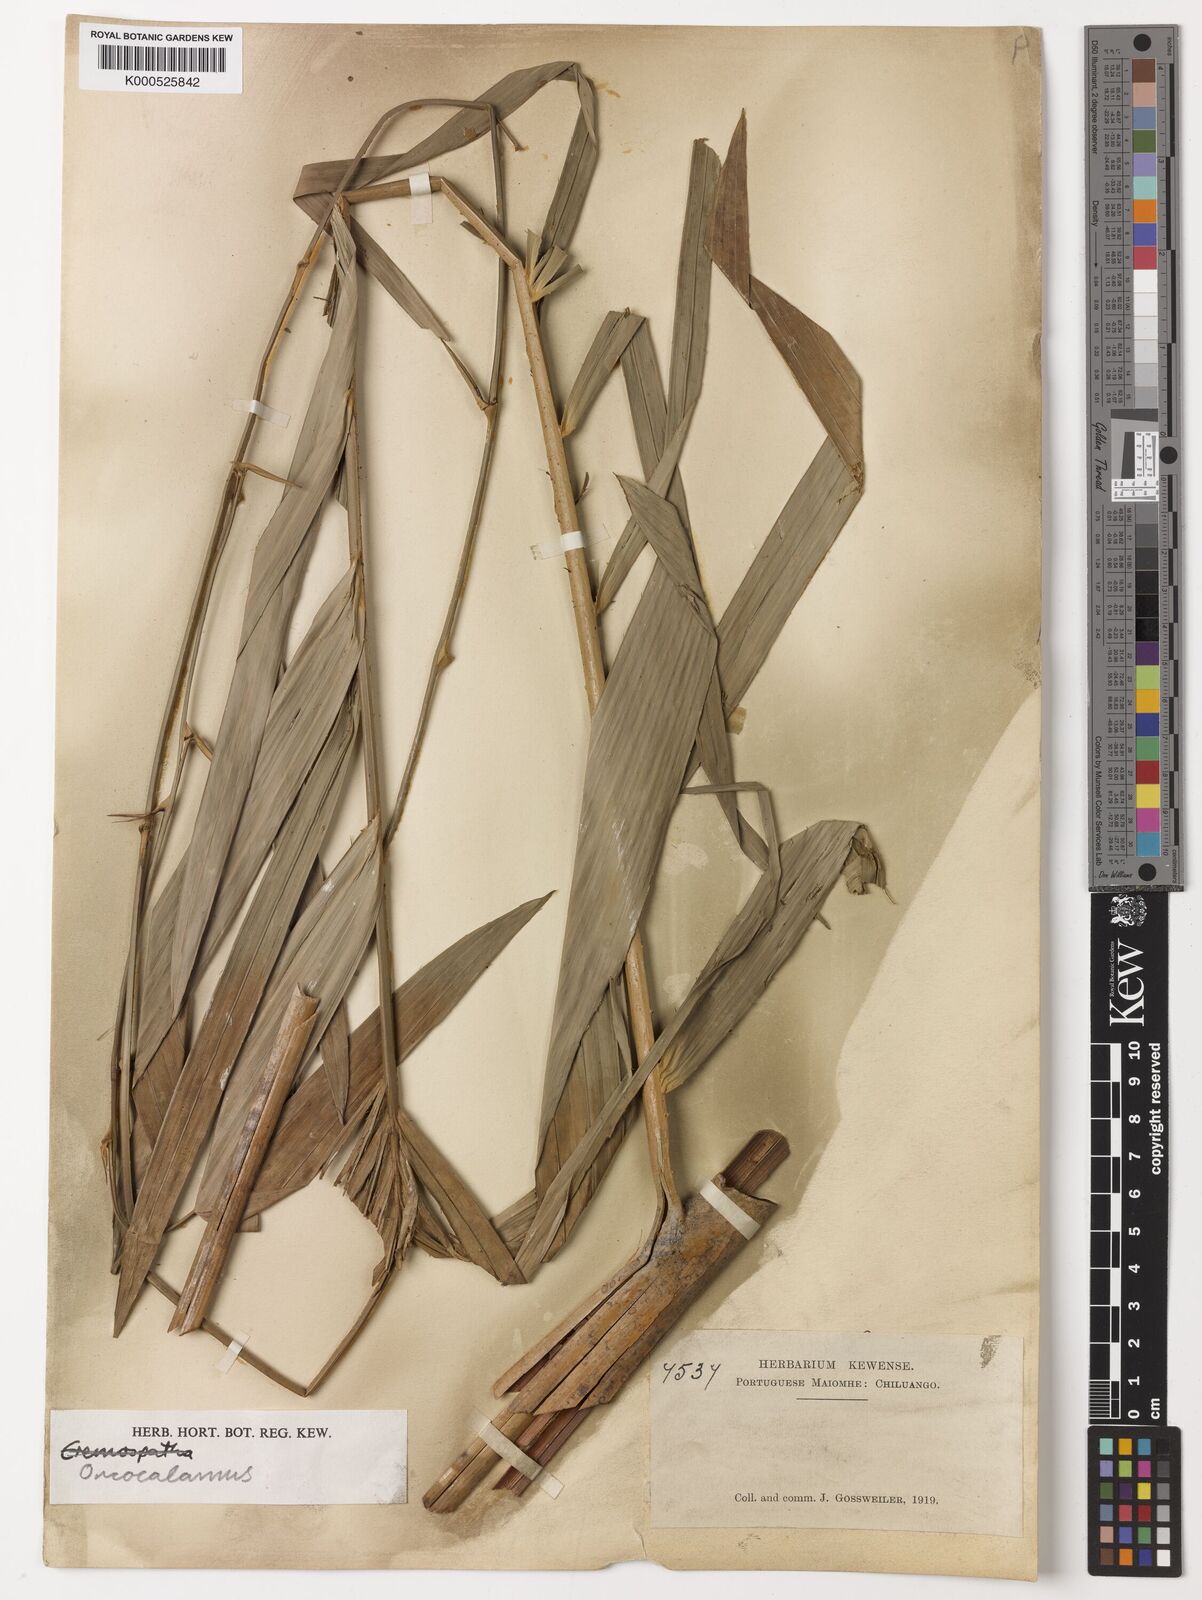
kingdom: Plantae
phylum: Tracheophyta
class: Liliopsida
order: Arecales
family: Arecaceae
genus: Oncocalamus
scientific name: Oncocalamus
